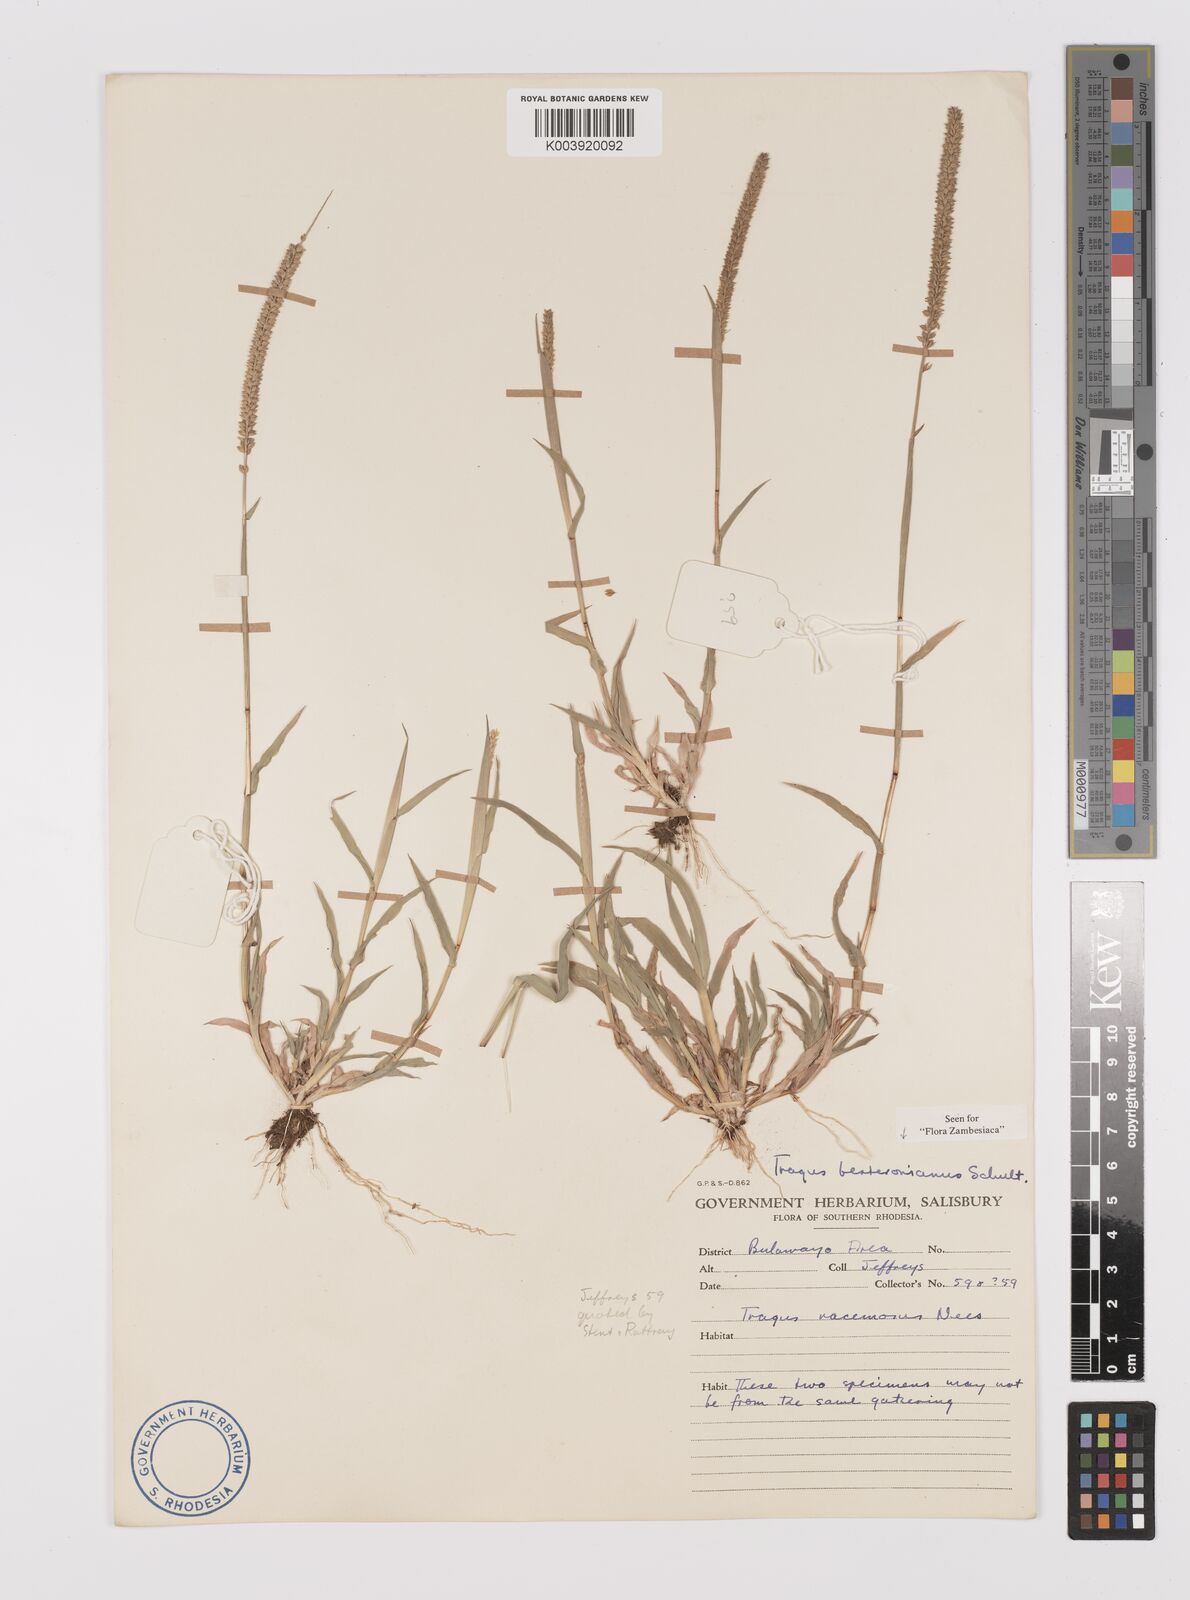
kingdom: Plantae
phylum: Tracheophyta
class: Liliopsida
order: Poales
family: Poaceae
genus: Tragus
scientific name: Tragus berteronianus
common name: African bur-grass
